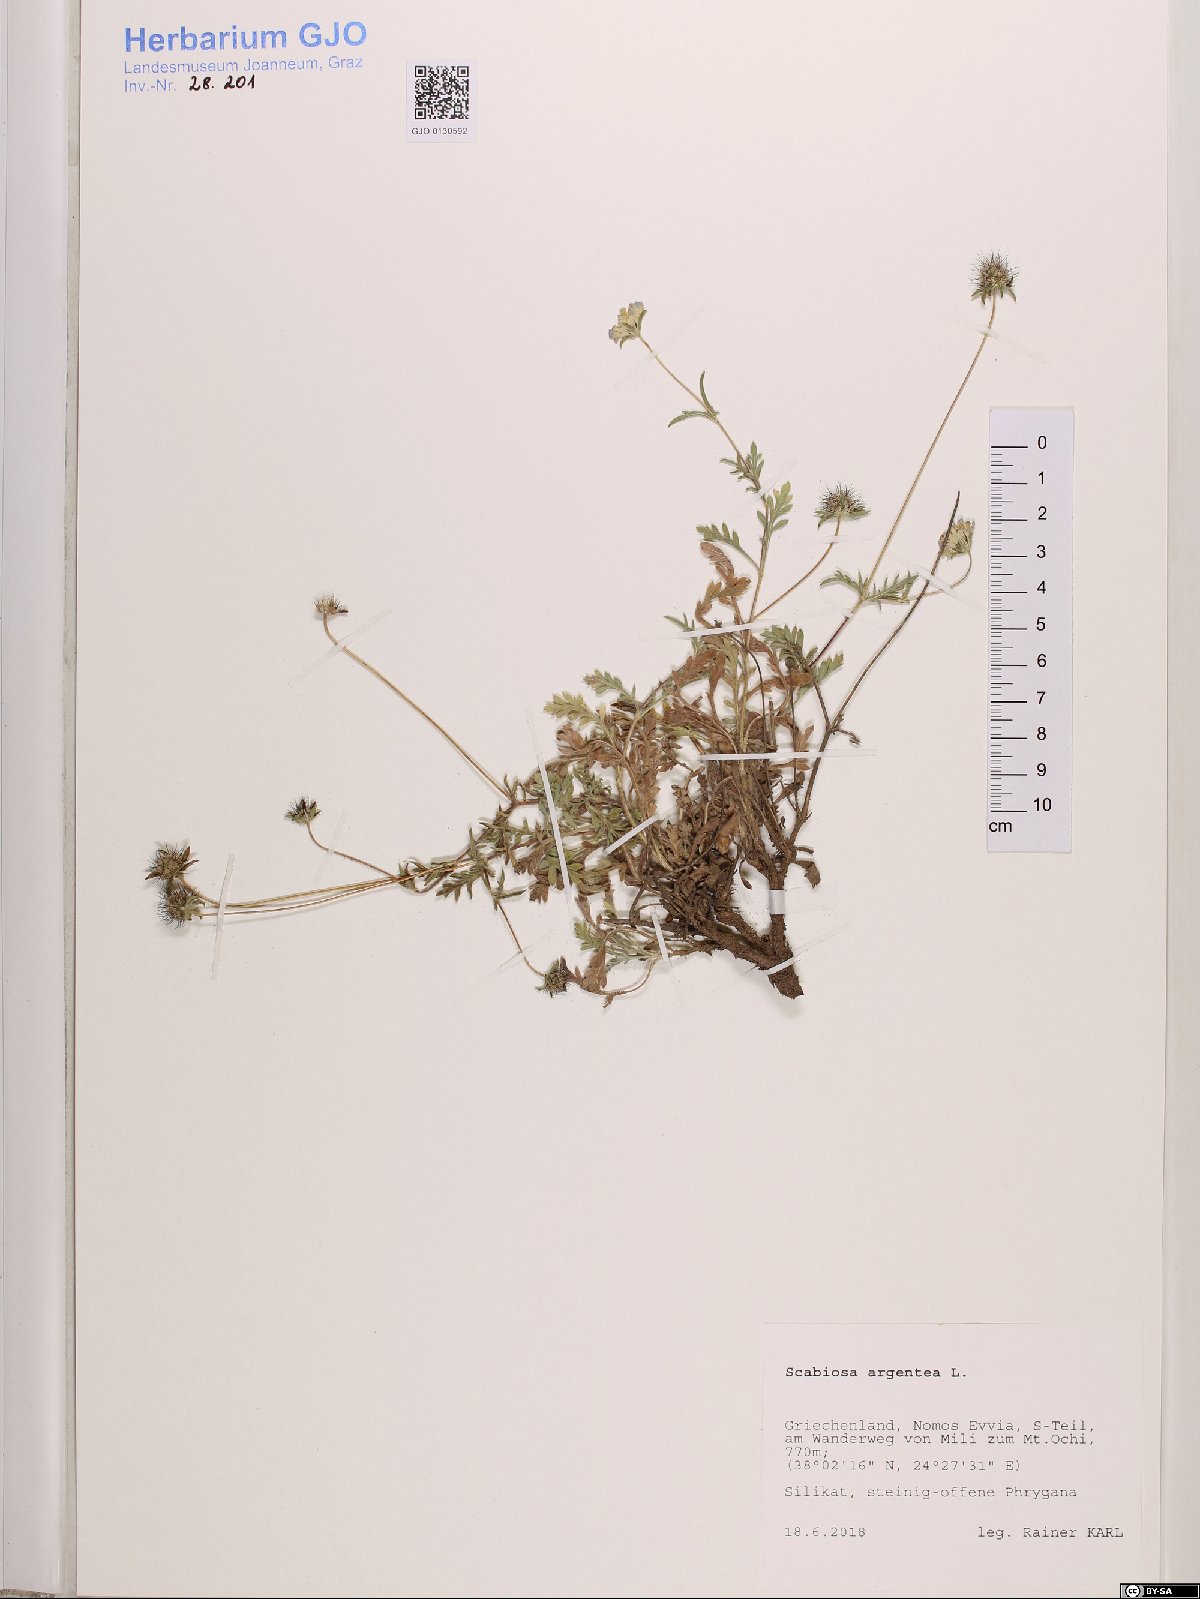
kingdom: Plantae
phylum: Tracheophyta
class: Magnoliopsida
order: Dipsacales
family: Caprifoliaceae
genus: Lomelosia
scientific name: Lomelosia argentea
